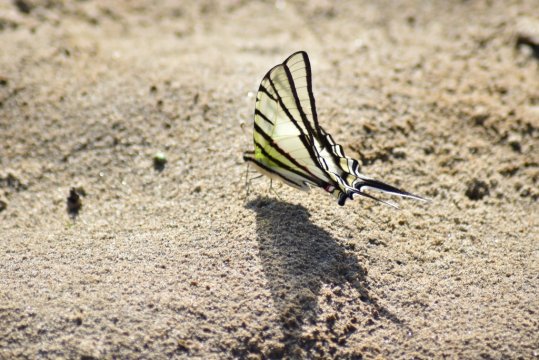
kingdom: Animalia
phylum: Arthropoda
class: Insecta
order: Lepidoptera
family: Papilionidae
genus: Eurytides
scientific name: Eurytides
